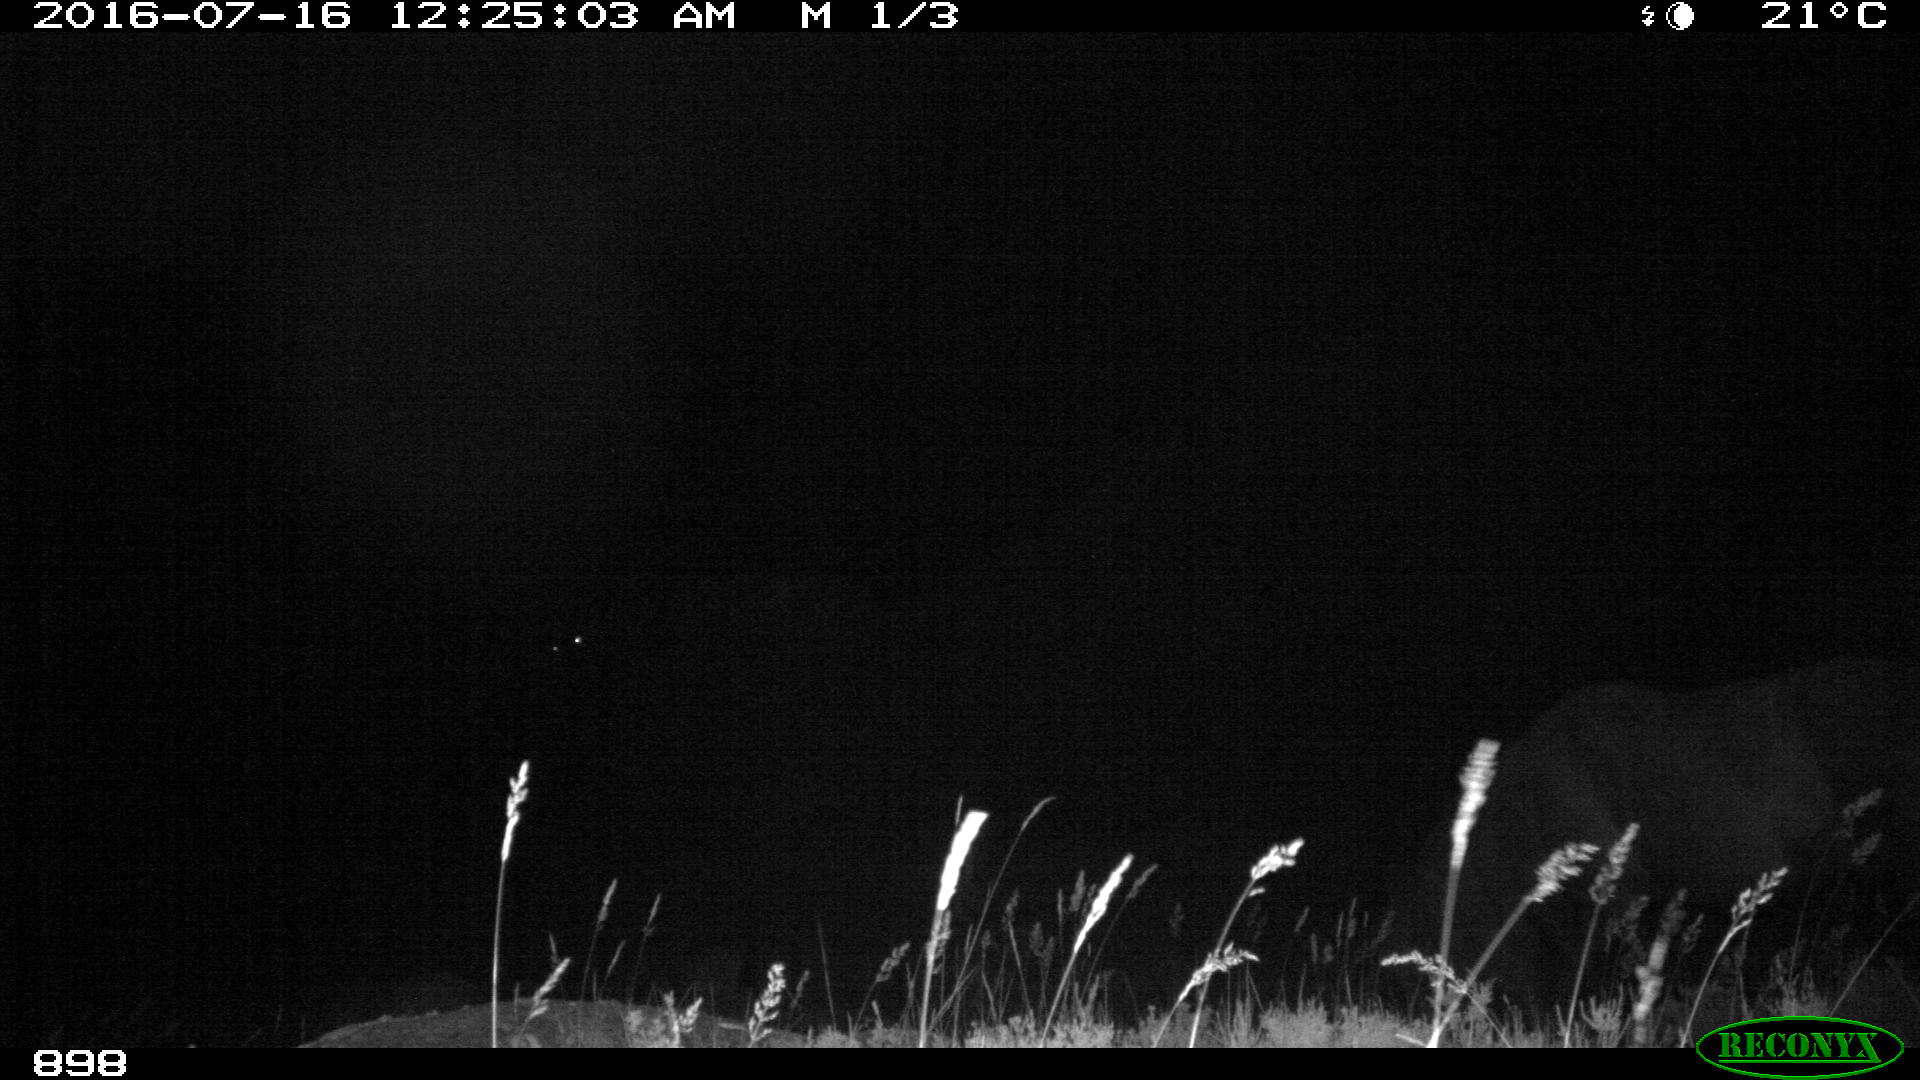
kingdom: Animalia
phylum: Chordata
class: Mammalia
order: Perissodactyla
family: Equidae
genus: Equus
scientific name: Equus caballus
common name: Horse
